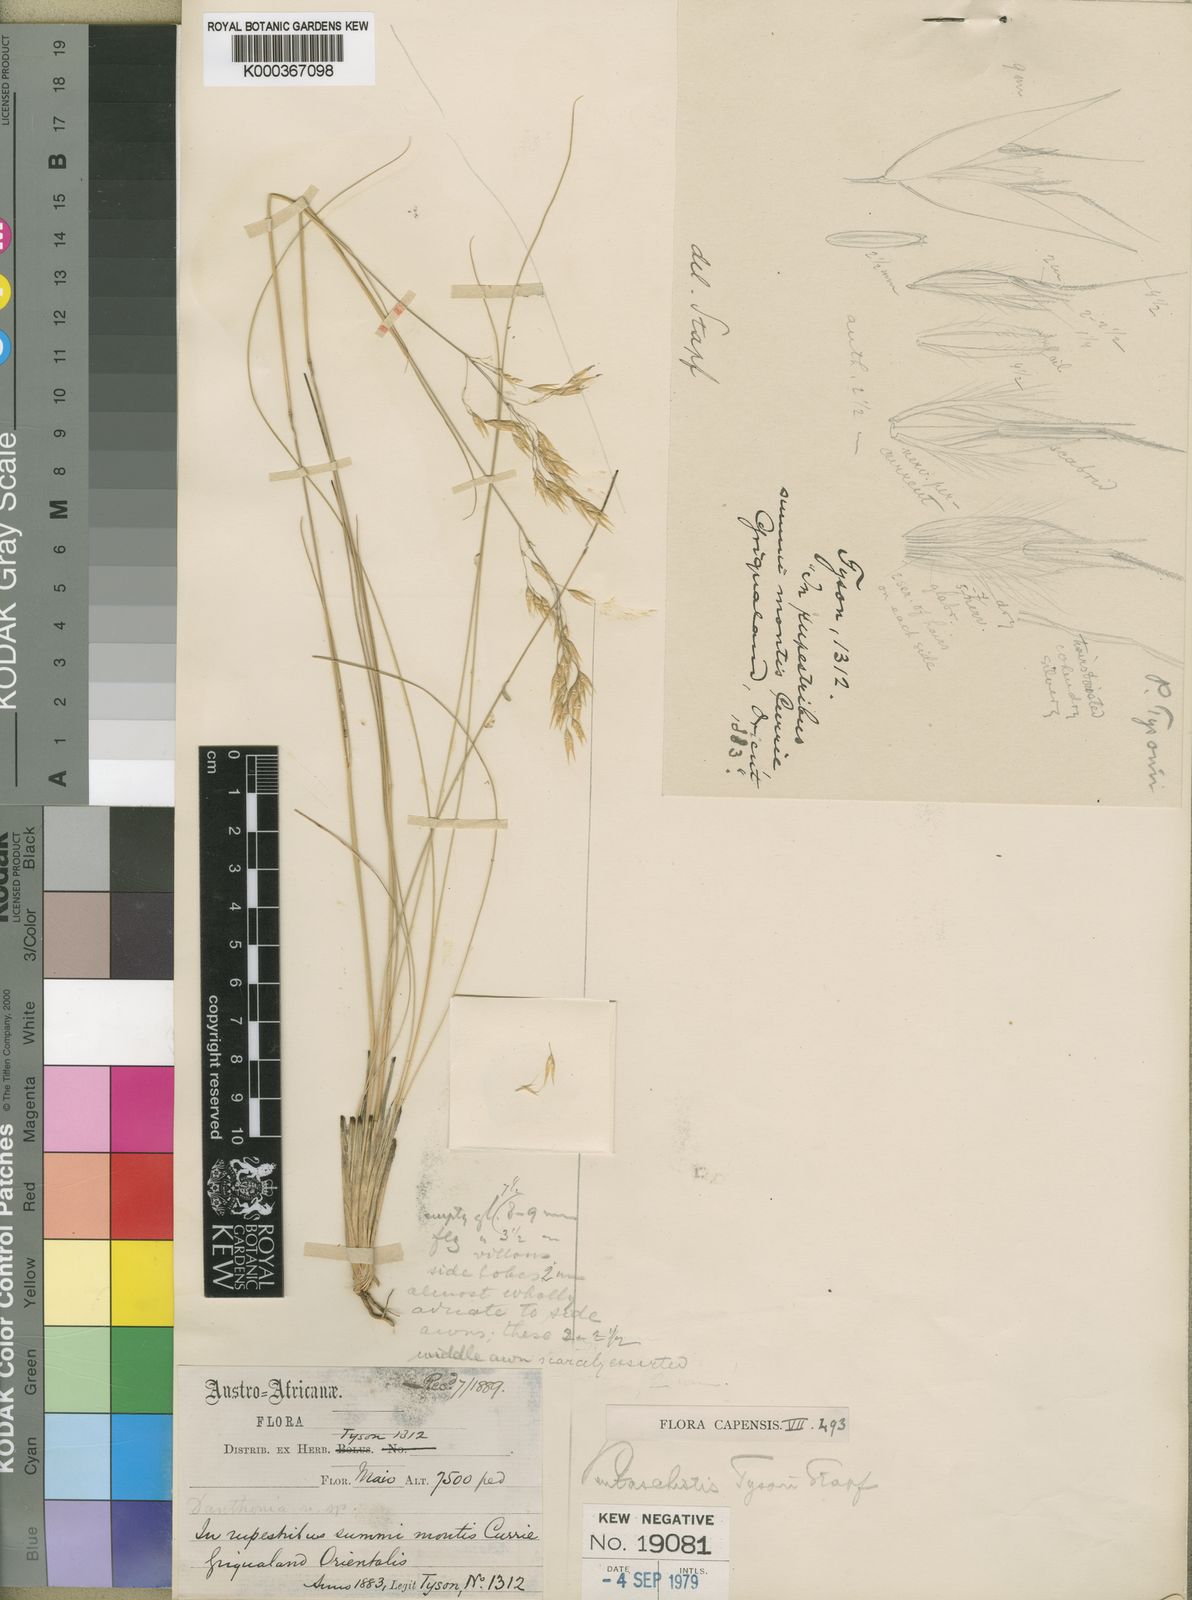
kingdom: Plantae
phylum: Tracheophyta
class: Liliopsida
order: Poales
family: Poaceae
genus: Pentameris
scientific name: Pentameris tysonii
